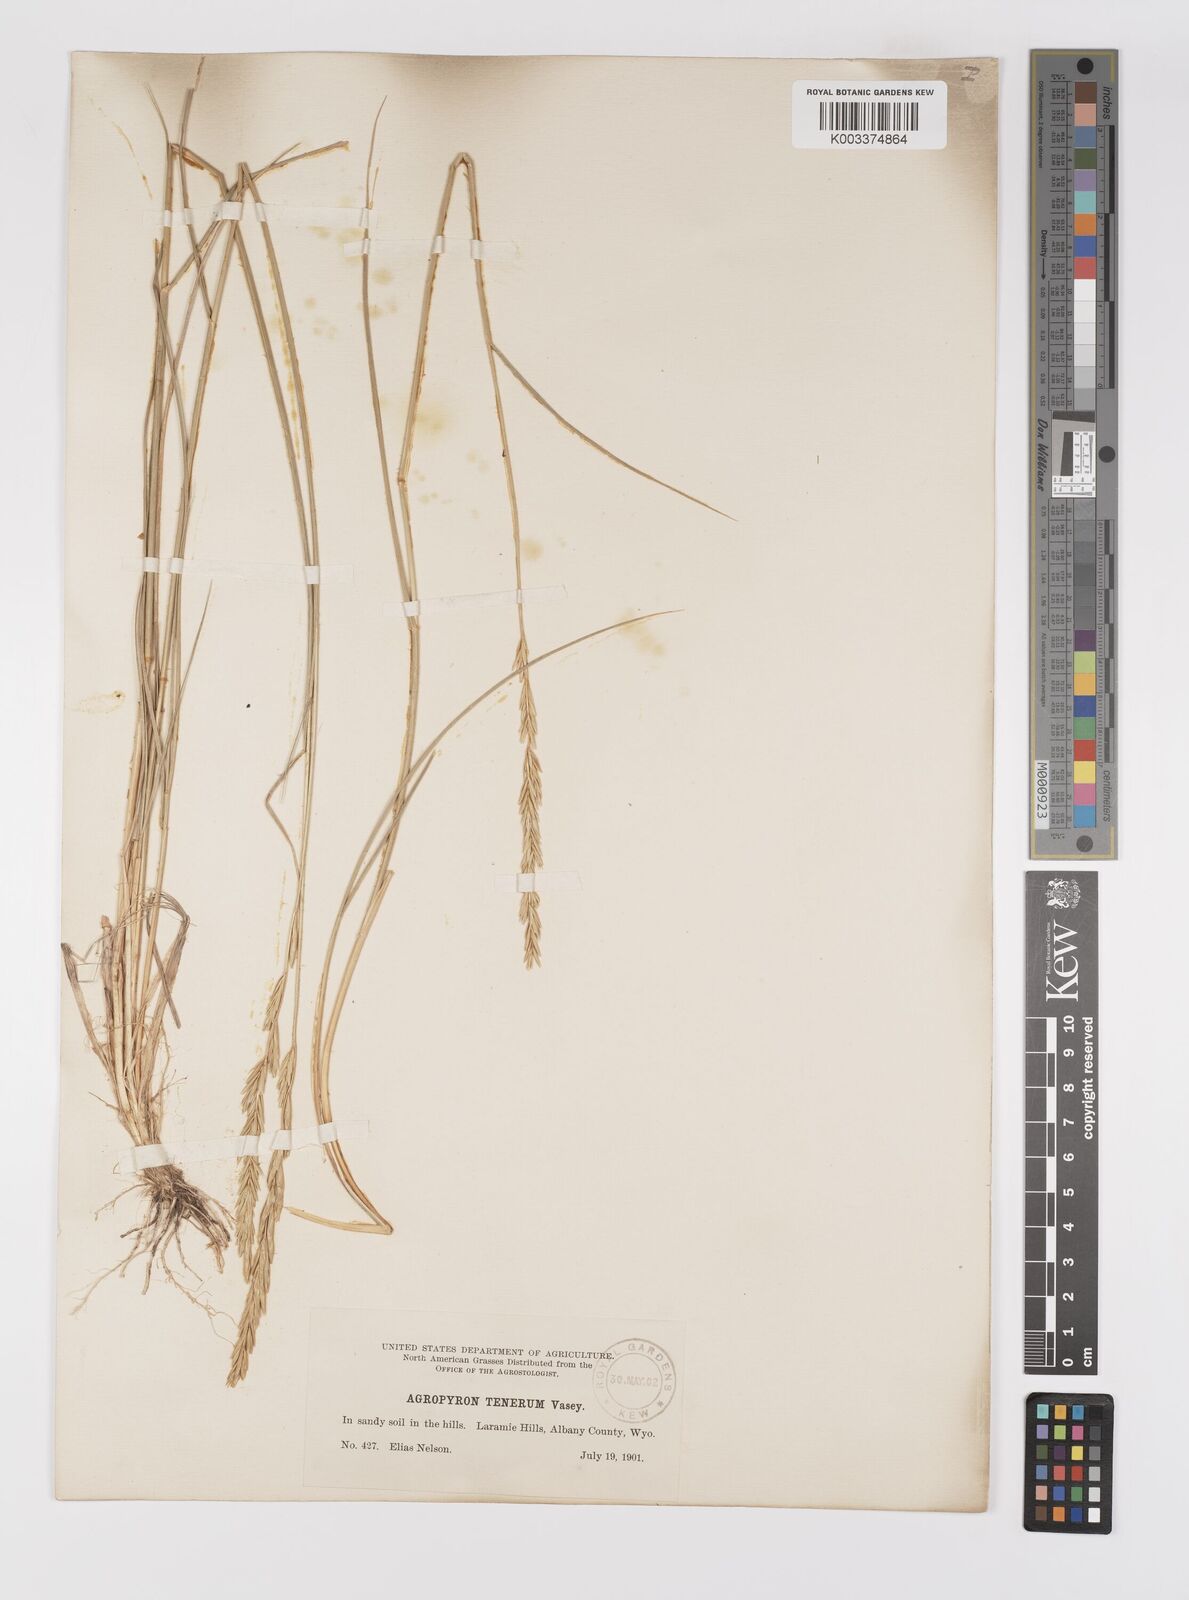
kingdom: Plantae
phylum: Tracheophyta
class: Liliopsida
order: Poales
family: Poaceae
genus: Elymus
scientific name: Elymus violaceus
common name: Arctic wheatgrass
